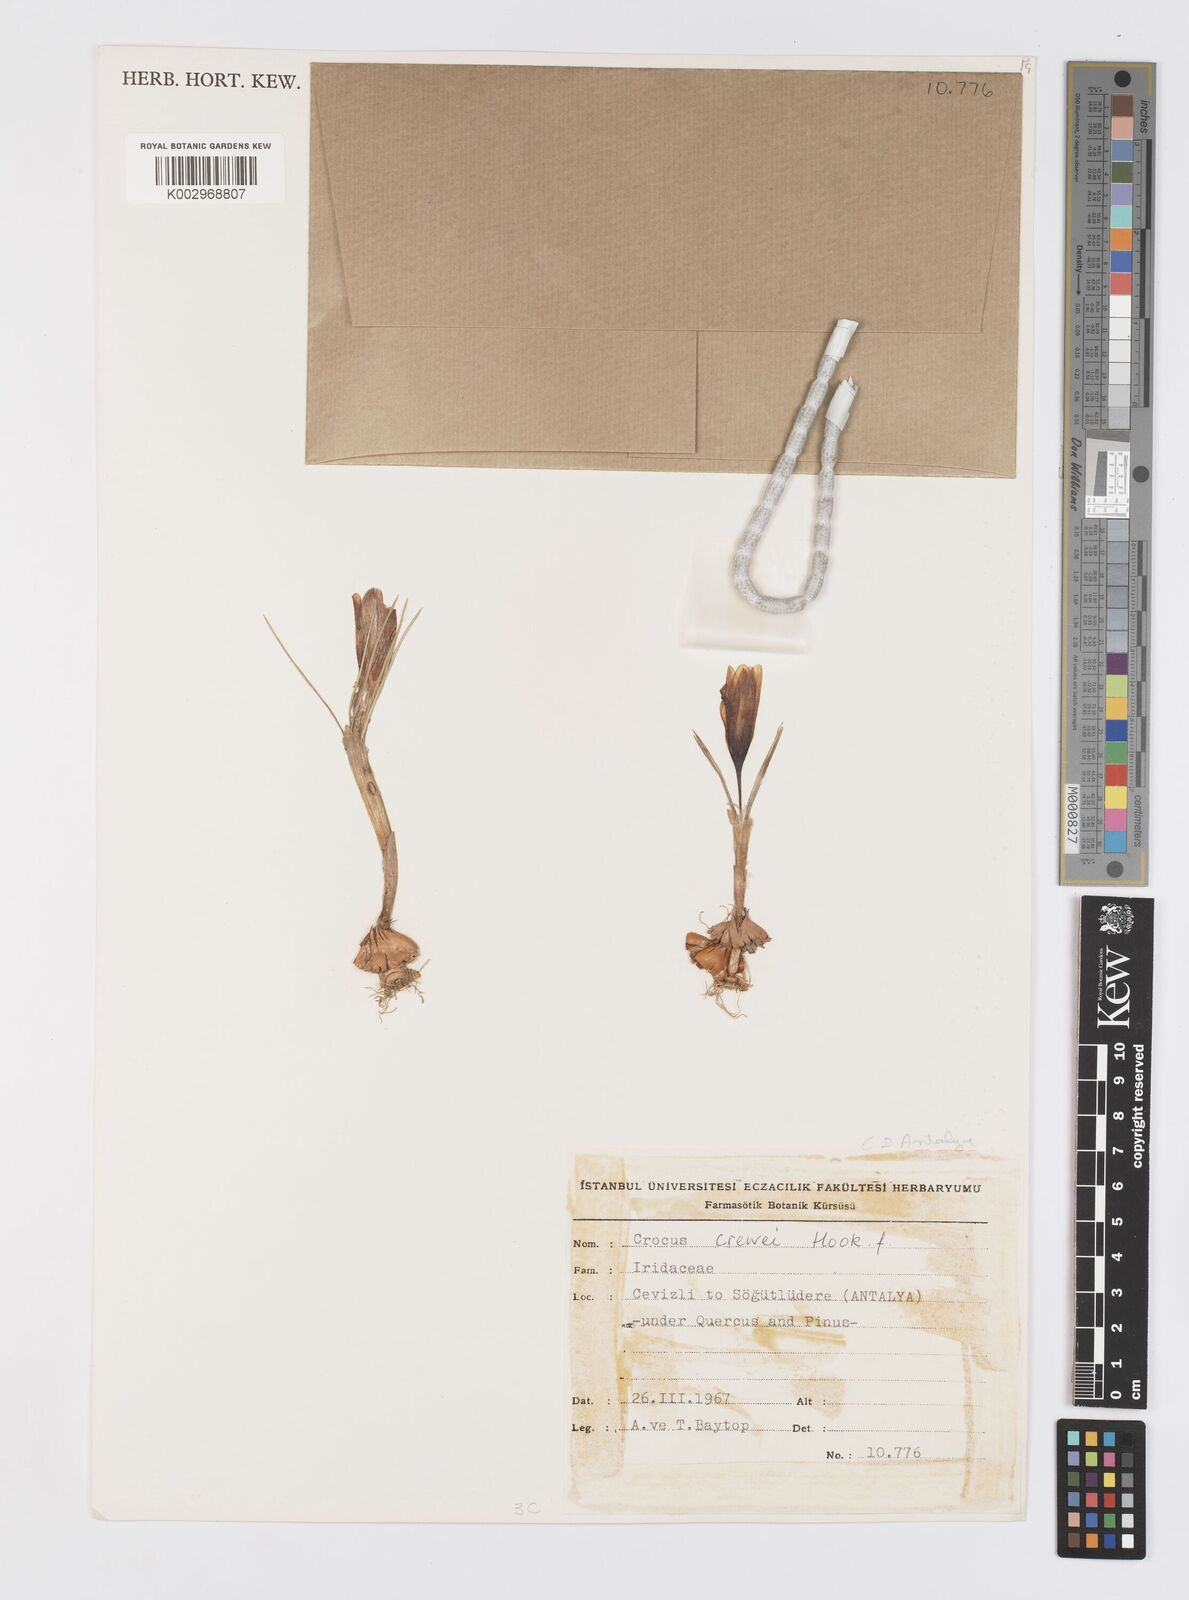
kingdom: Plantae
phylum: Tracheophyta
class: Liliopsida
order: Asparagales
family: Iridaceae
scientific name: Iridaceae
